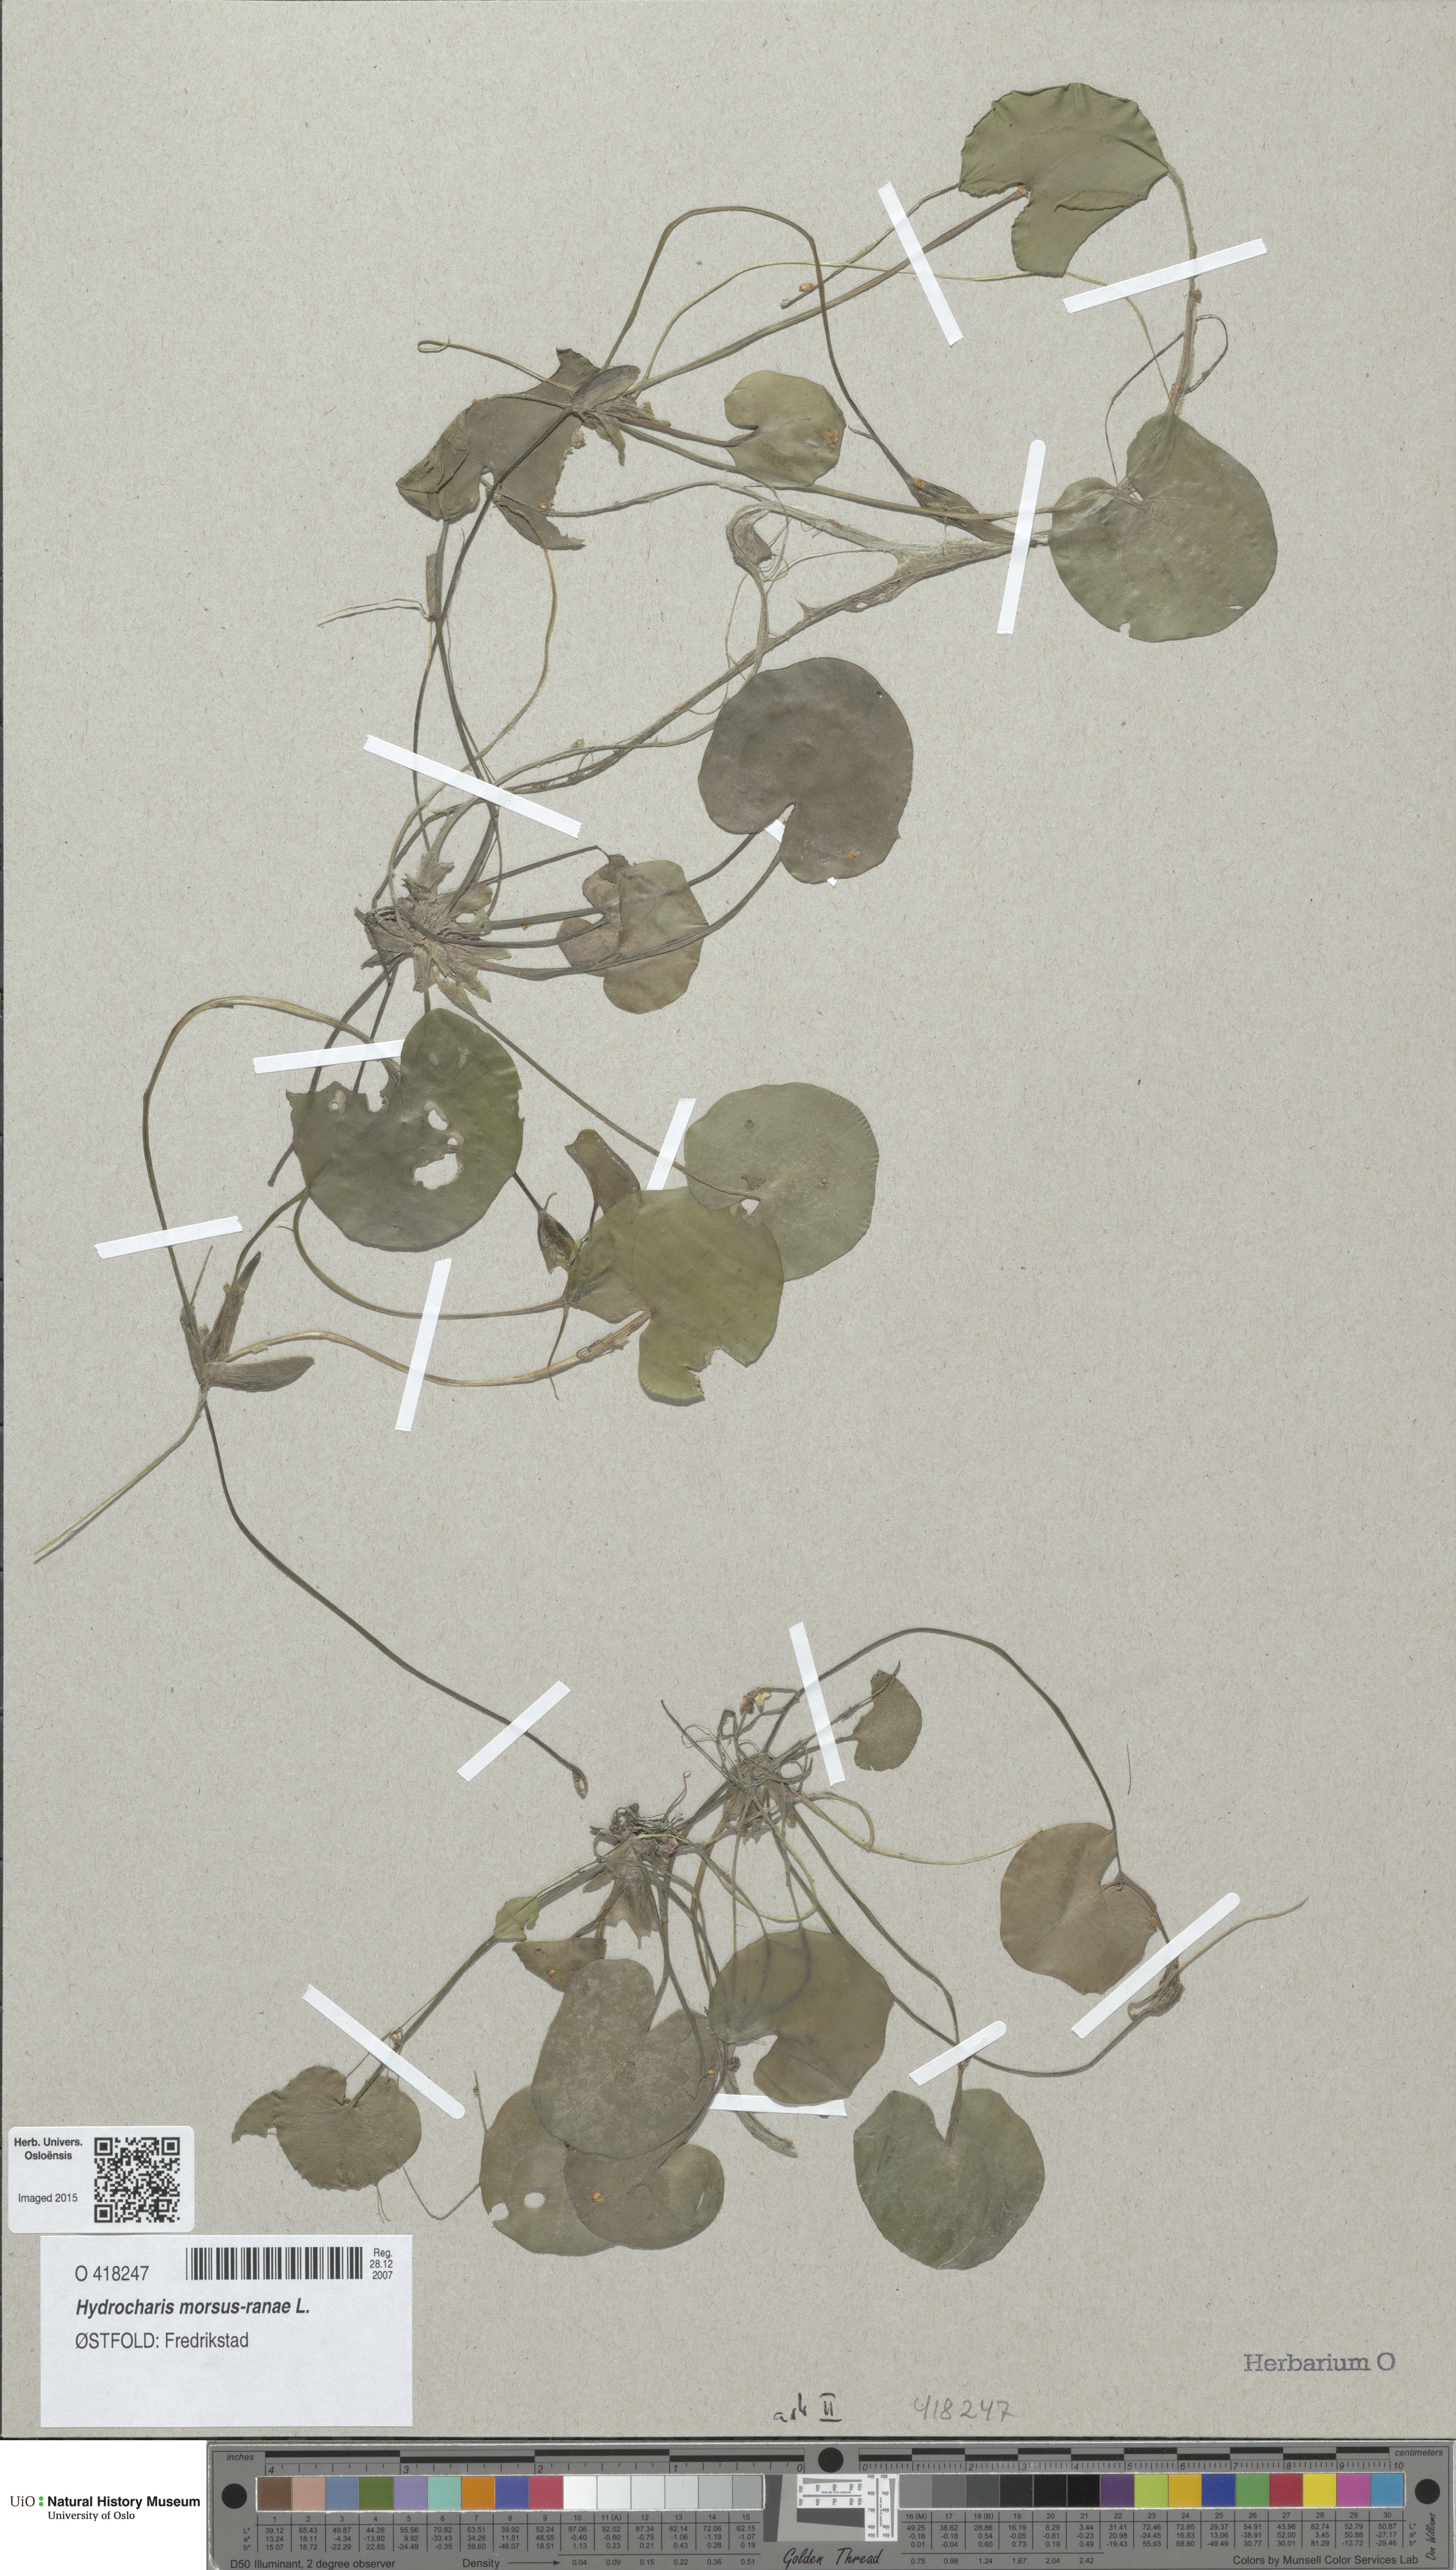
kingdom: Plantae
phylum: Tracheophyta
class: Liliopsida
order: Alismatales
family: Hydrocharitaceae
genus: Hydrocharis
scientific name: Hydrocharis morsus-ranae
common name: Frogbit
